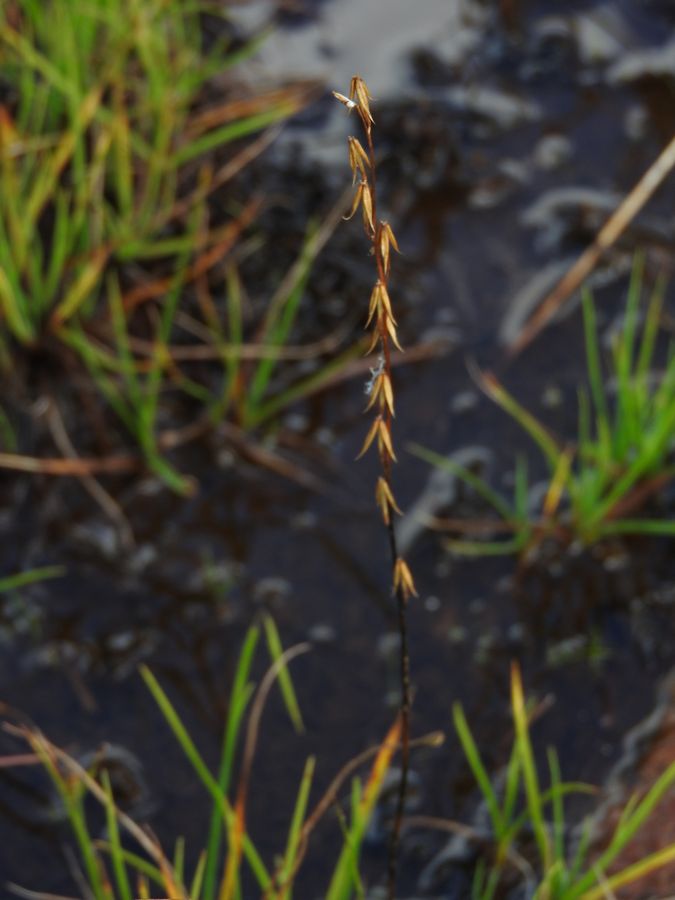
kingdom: Plantae
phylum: Tracheophyta
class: Liliopsida
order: Alismatales
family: Juncaginaceae
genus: Triglochin
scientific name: Triglochin palustris
